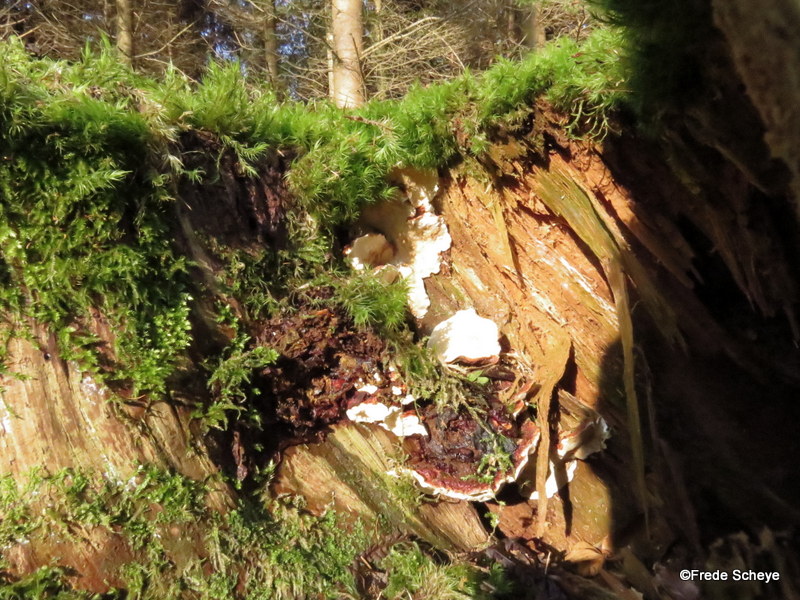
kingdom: Fungi
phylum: Basidiomycota
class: Agaricomycetes
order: Russulales
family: Bondarzewiaceae
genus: Heterobasidion
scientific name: Heterobasidion annosum
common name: almindelig rodfordærver
